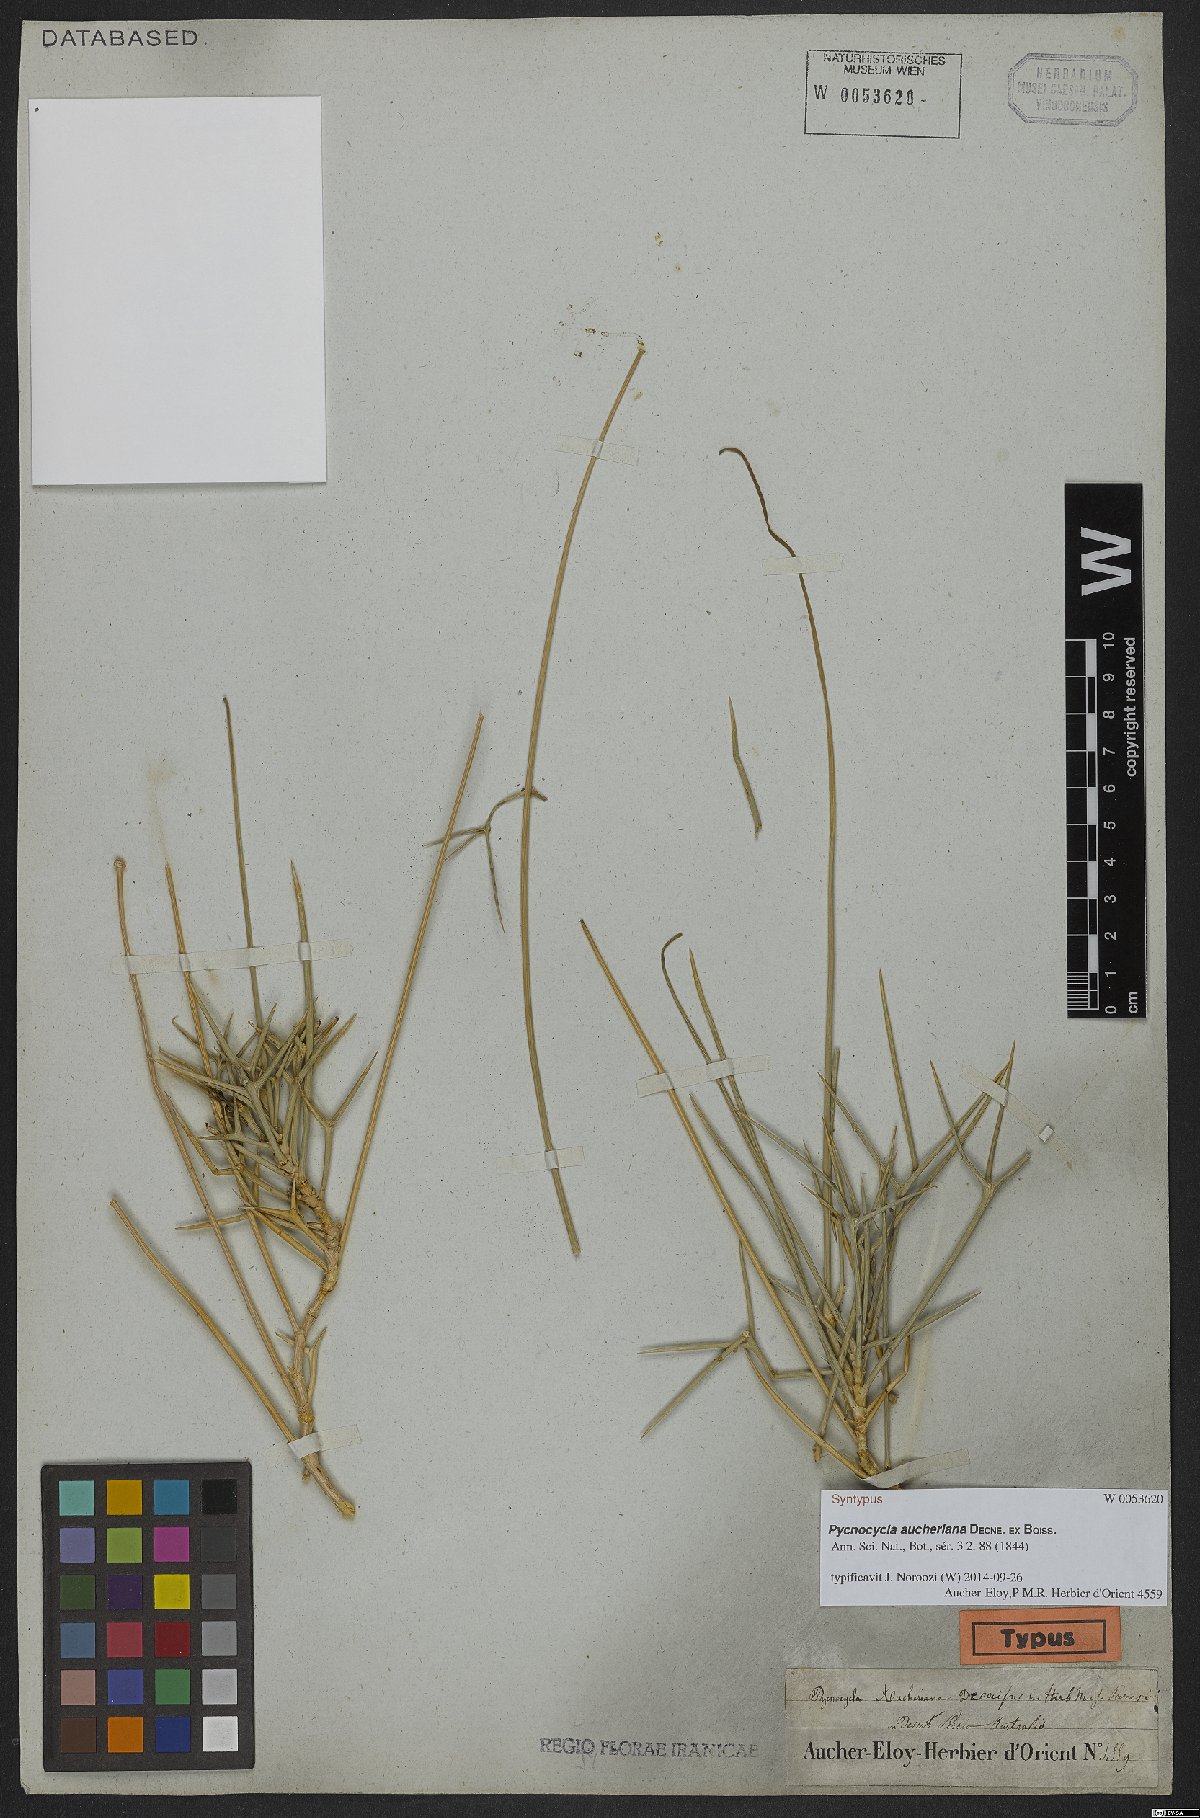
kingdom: Plantae
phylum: Tracheophyta
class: Magnoliopsida
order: Apiales
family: Apiaceae
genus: Pycnocycla
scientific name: Pycnocycla aucheriana
